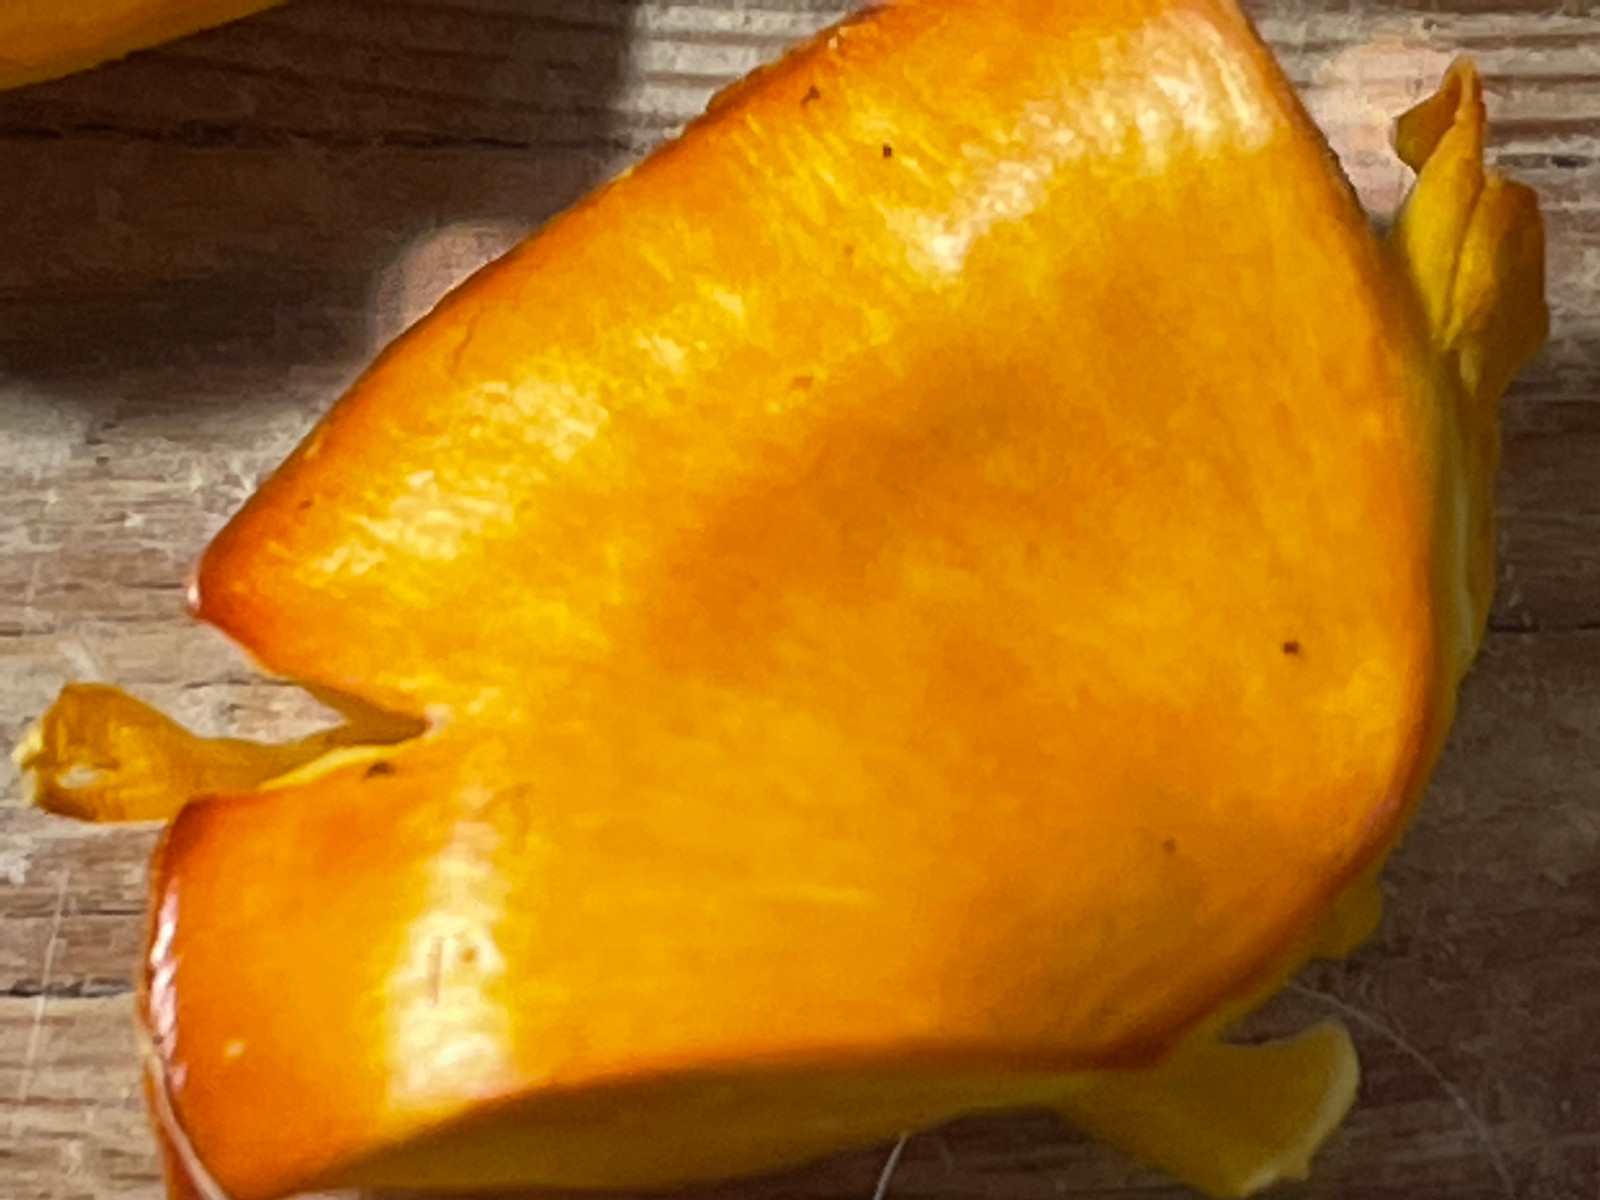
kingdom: Fungi
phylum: Basidiomycota
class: Agaricomycetes
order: Agaricales
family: Hygrophoraceae
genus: Hygrocybe
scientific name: Hygrocybe
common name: vokshat
